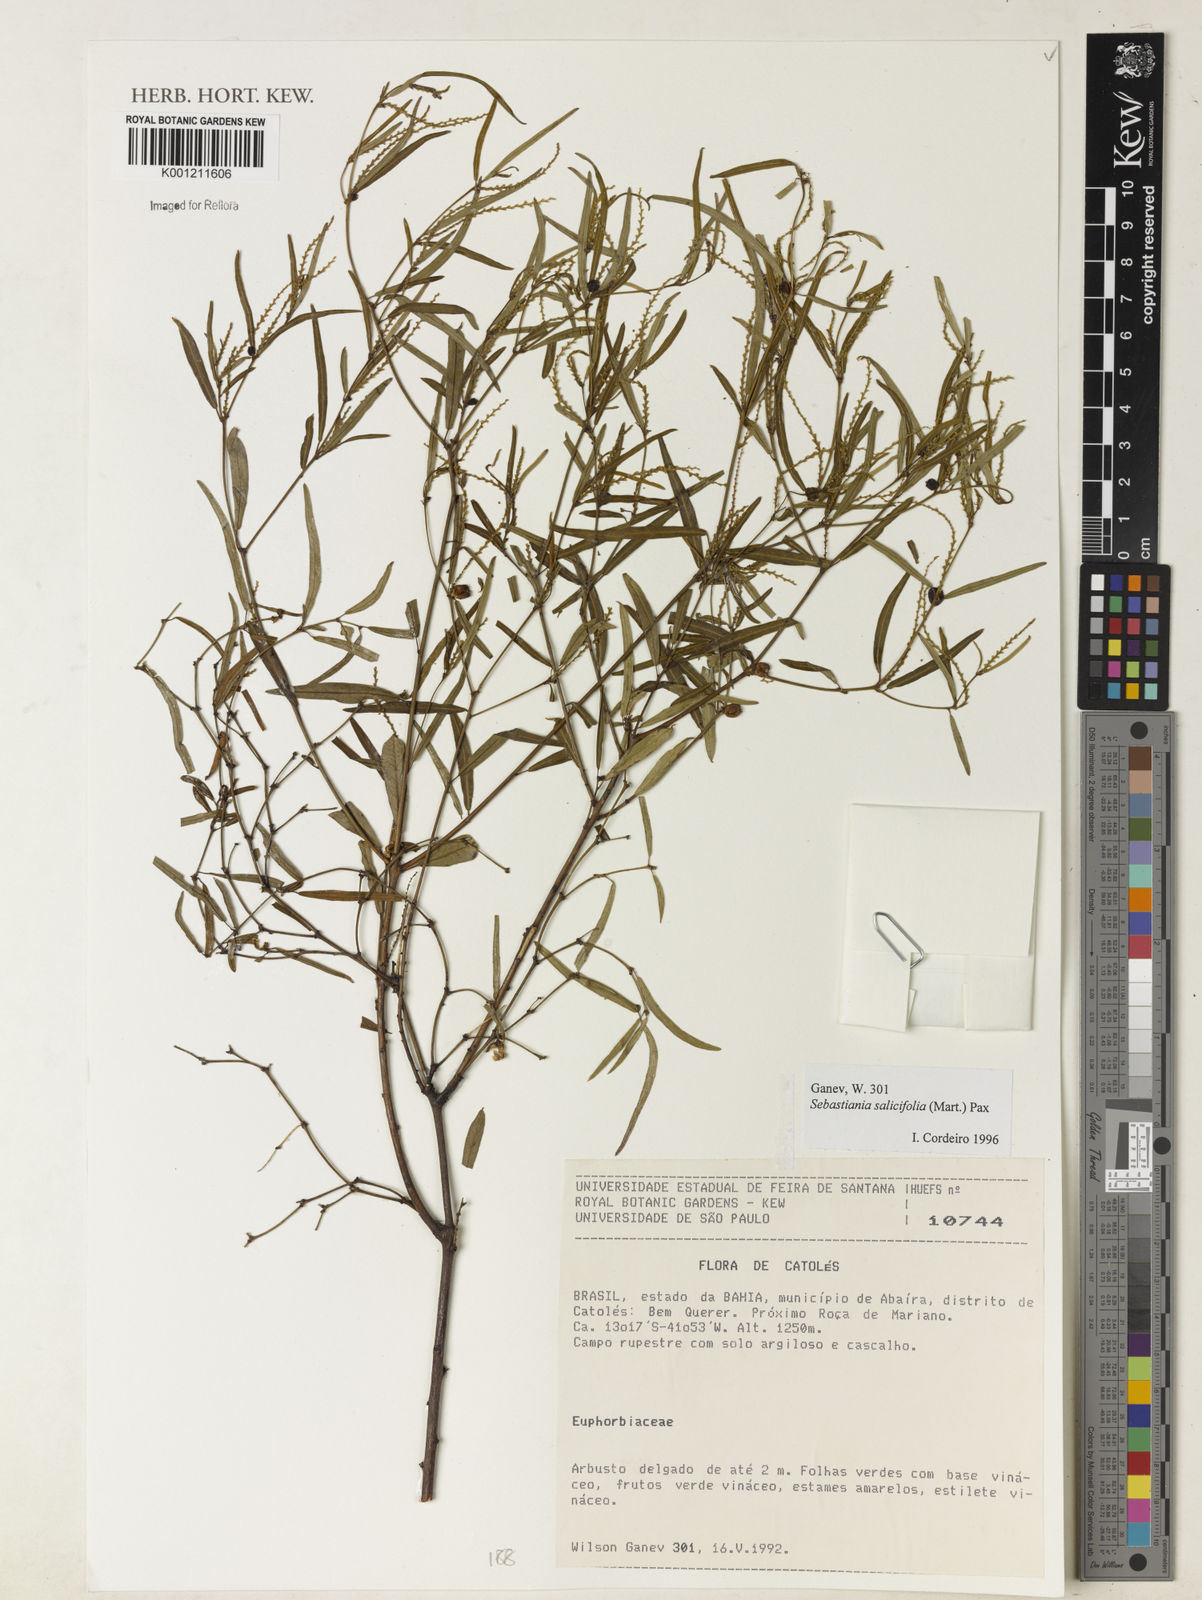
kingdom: Plantae
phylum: Tracheophyta
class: Magnoliopsida
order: Malpighiales
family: Euphorbiaceae
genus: Microstachys
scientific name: Microstachys
